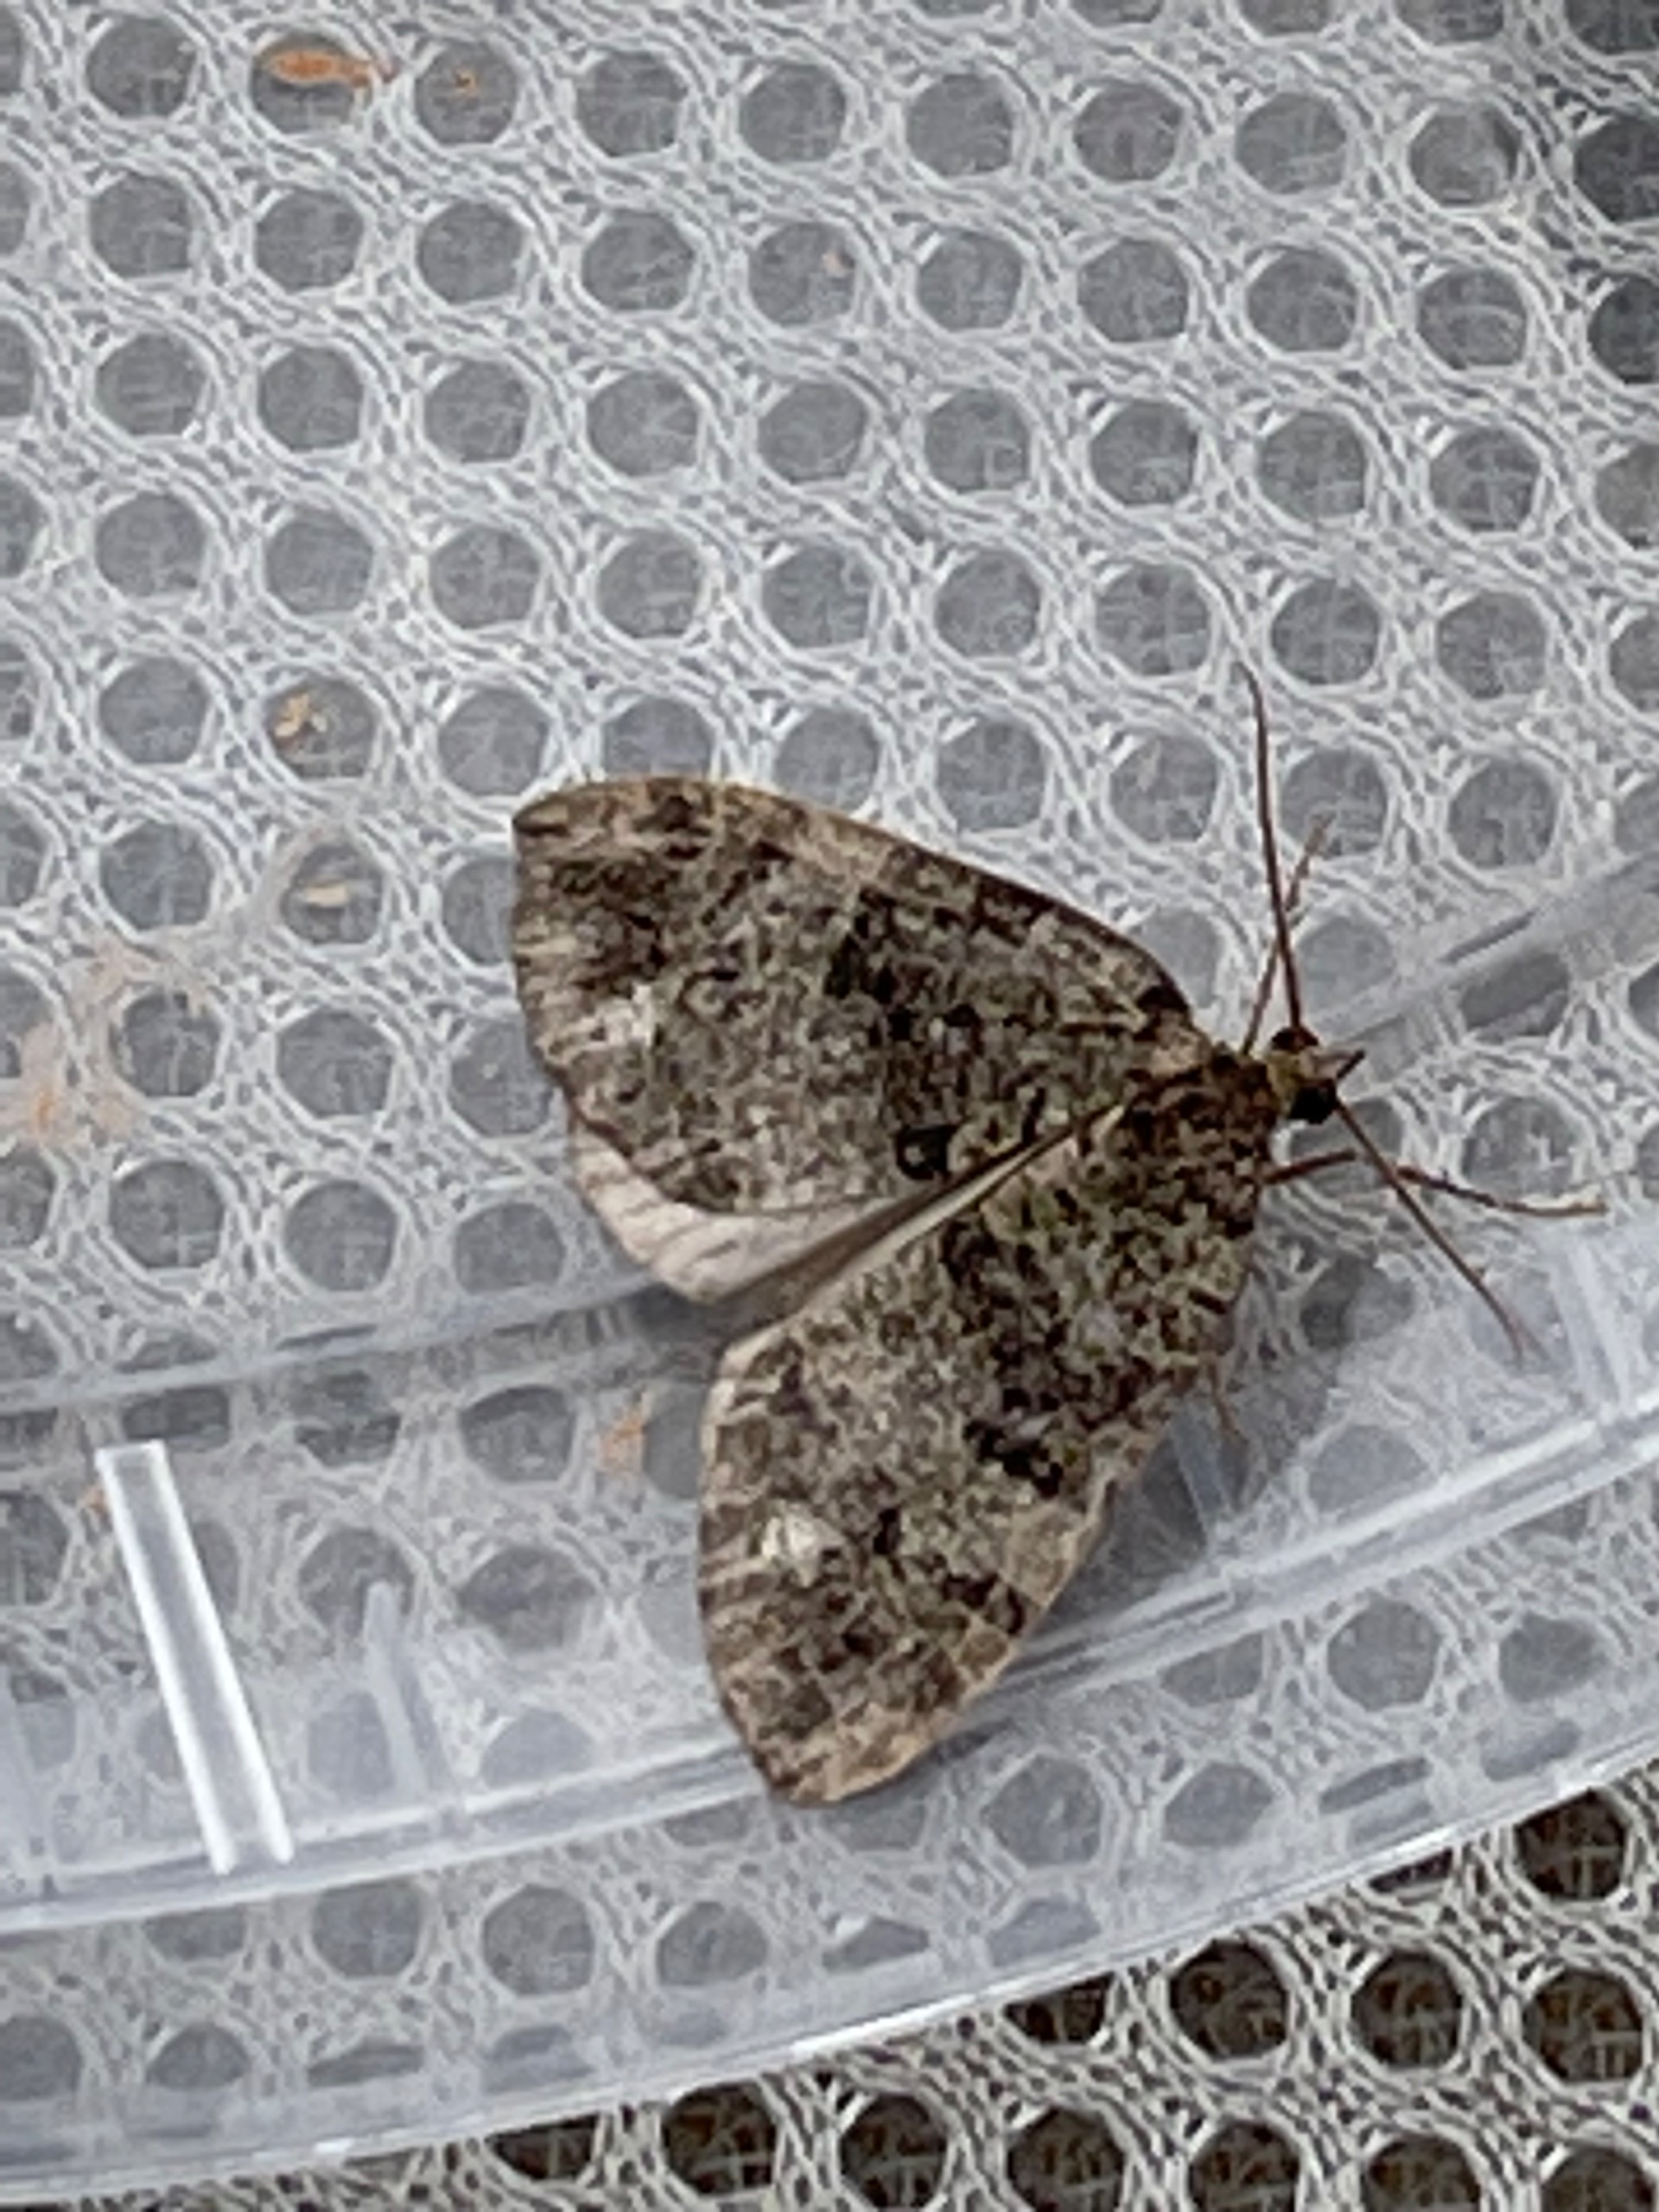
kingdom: Animalia
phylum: Arthropoda
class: Insecta
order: Lepidoptera
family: Geometridae
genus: Hydriomena
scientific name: Hydriomena furcata
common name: Vatret bladmåler
